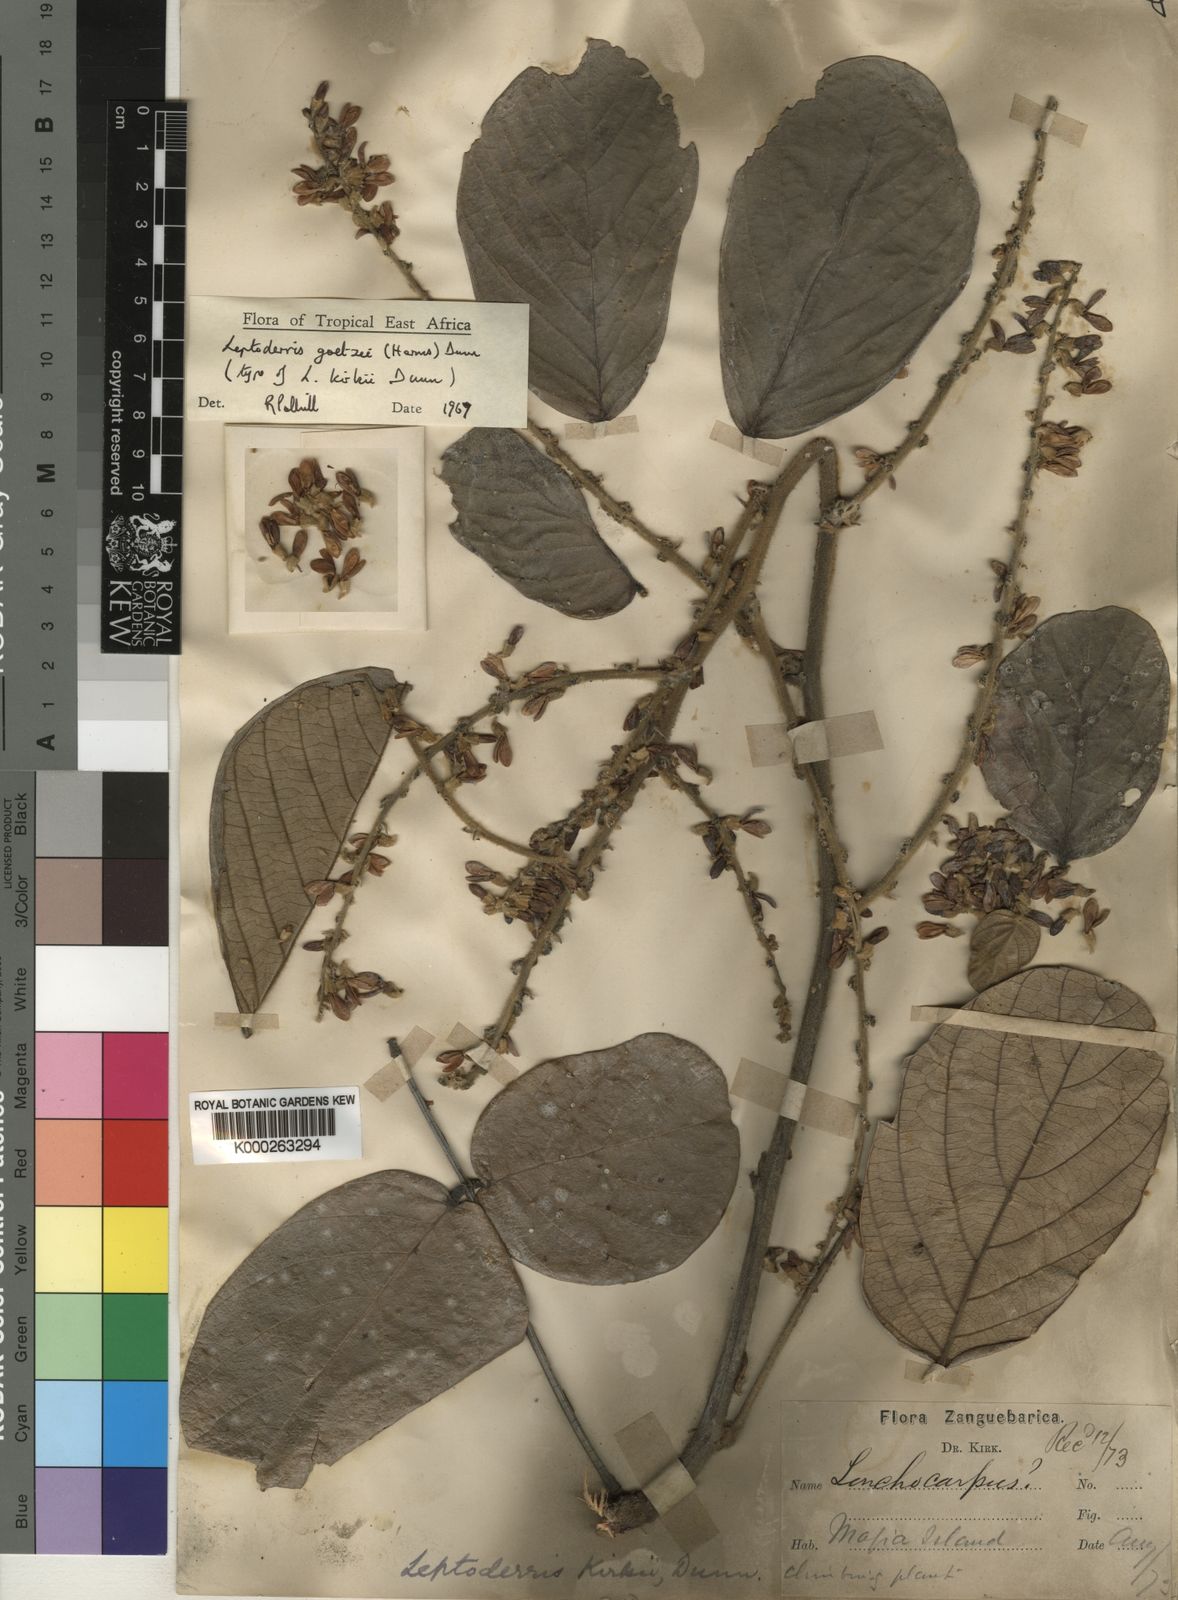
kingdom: Plantae
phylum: Tracheophyta
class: Magnoliopsida
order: Fabales
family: Fabaceae
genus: Leptoderris
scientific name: Leptoderris brachyptera
